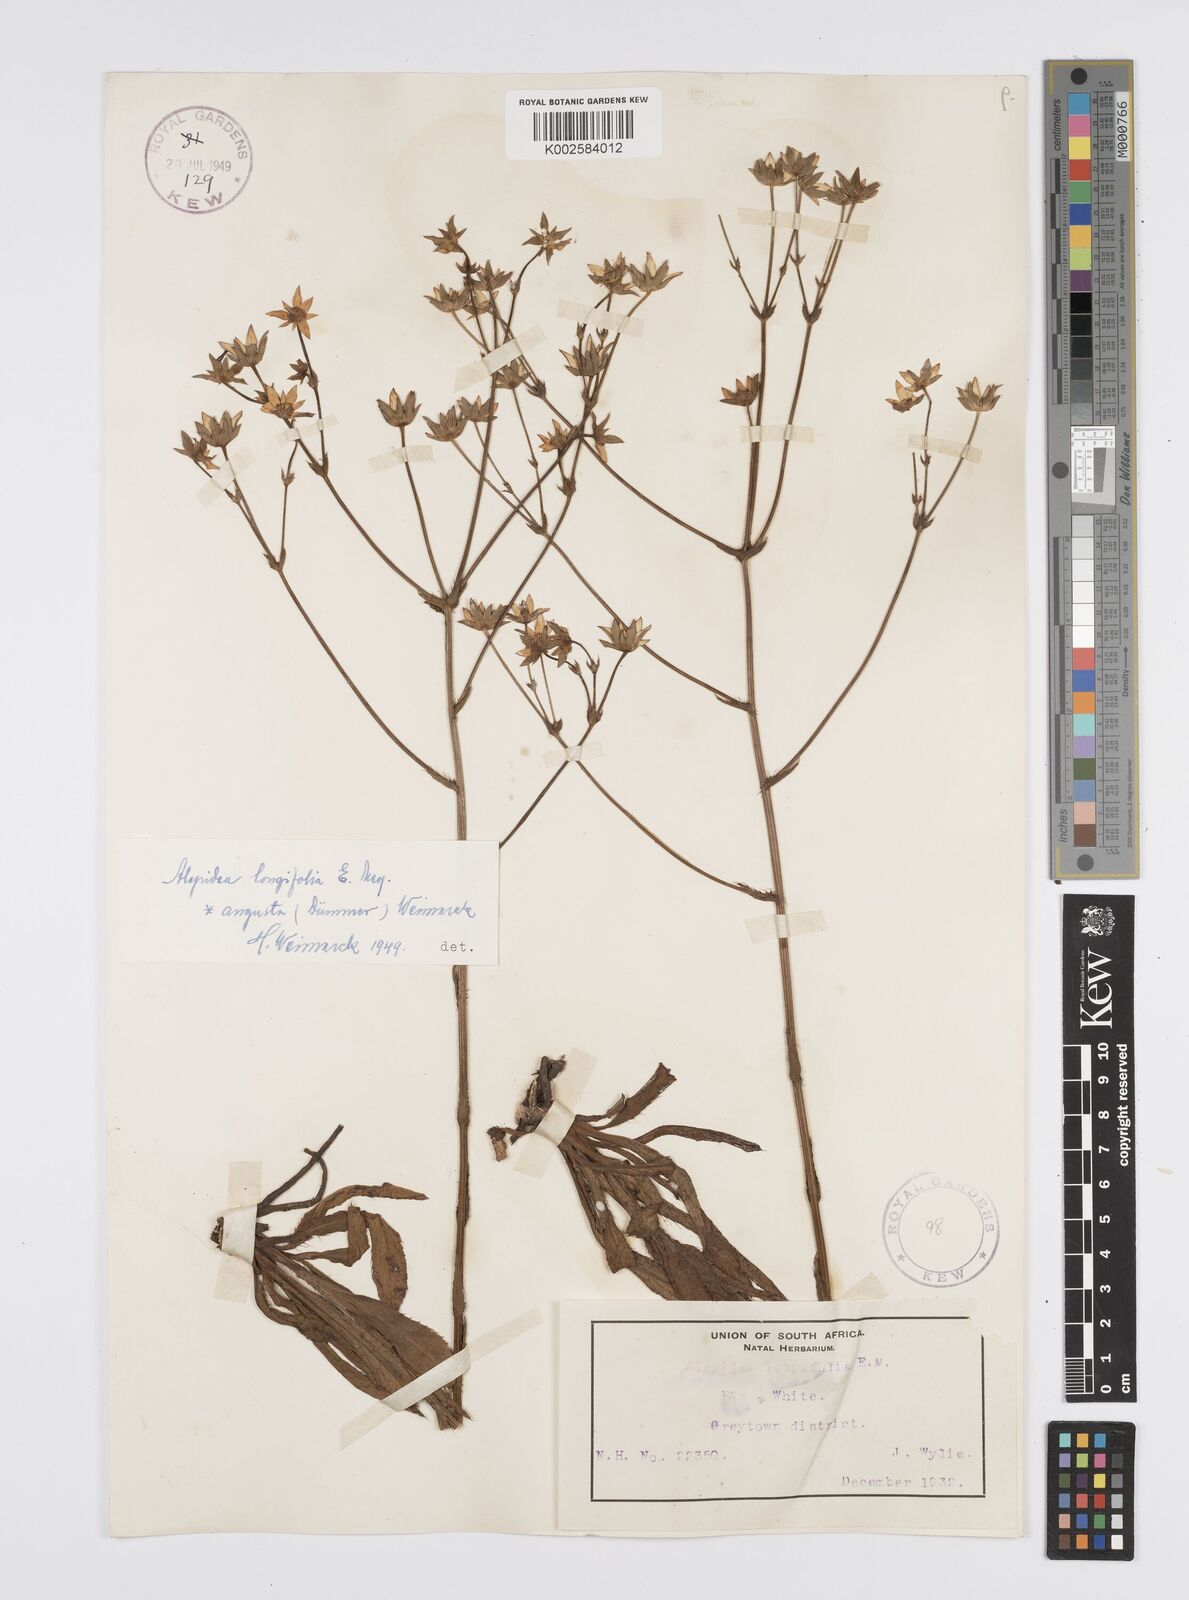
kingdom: Plantae
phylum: Tracheophyta
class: Magnoliopsida
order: Apiales
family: Apiaceae
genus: Alepidea
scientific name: Alepidea
